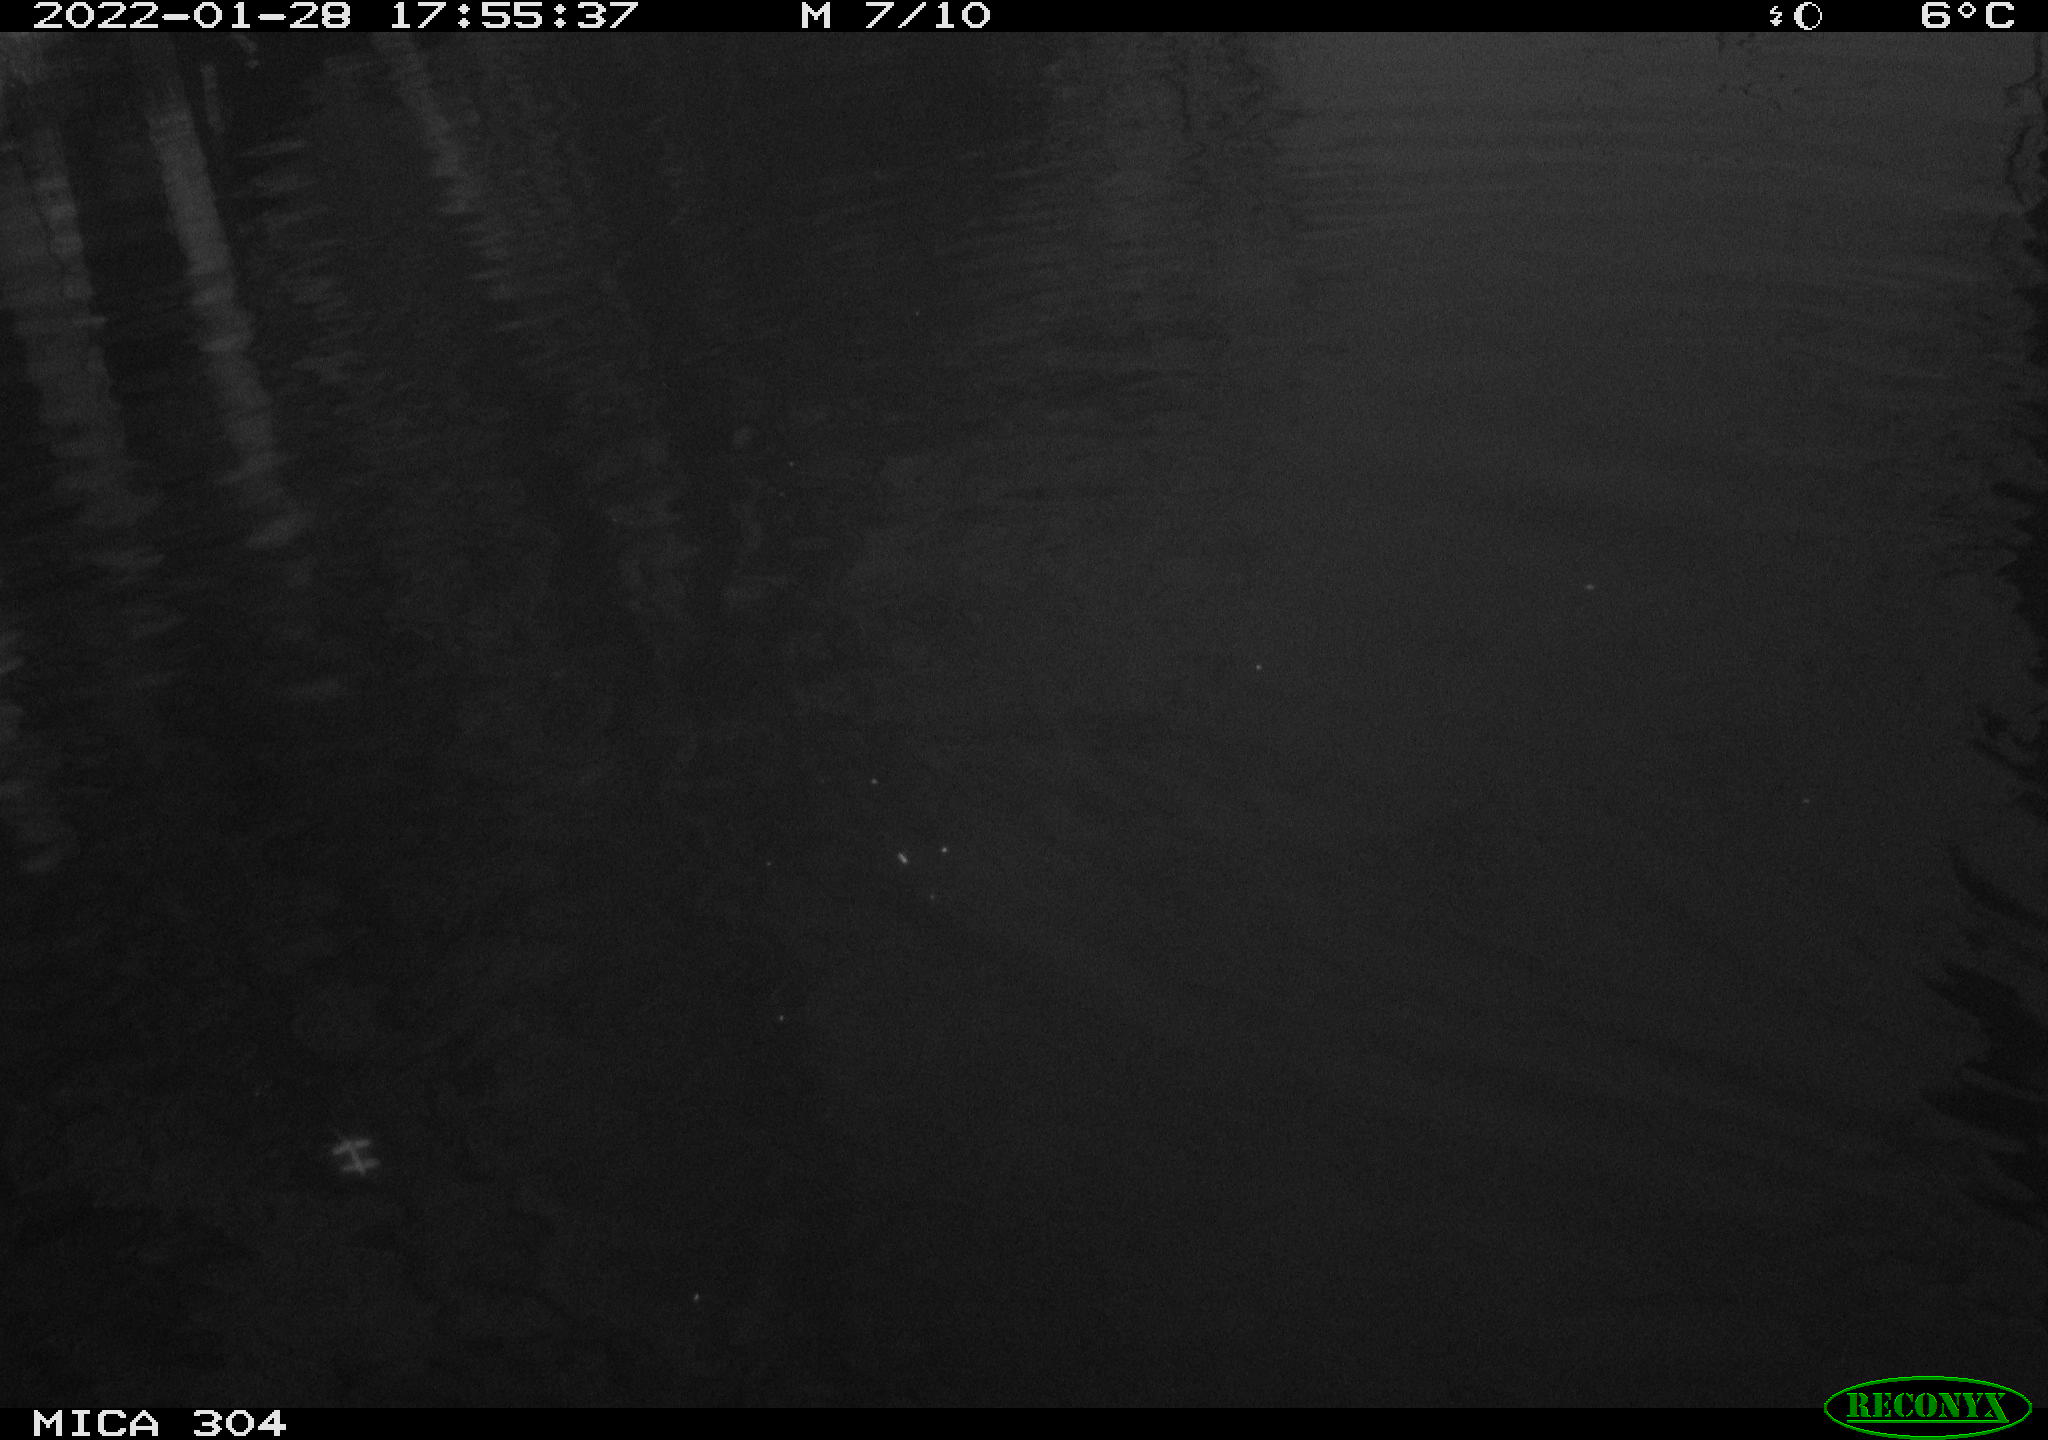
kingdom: Animalia
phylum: Chordata
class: Aves
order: Anseriformes
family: Anatidae
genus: Anas
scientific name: Anas
